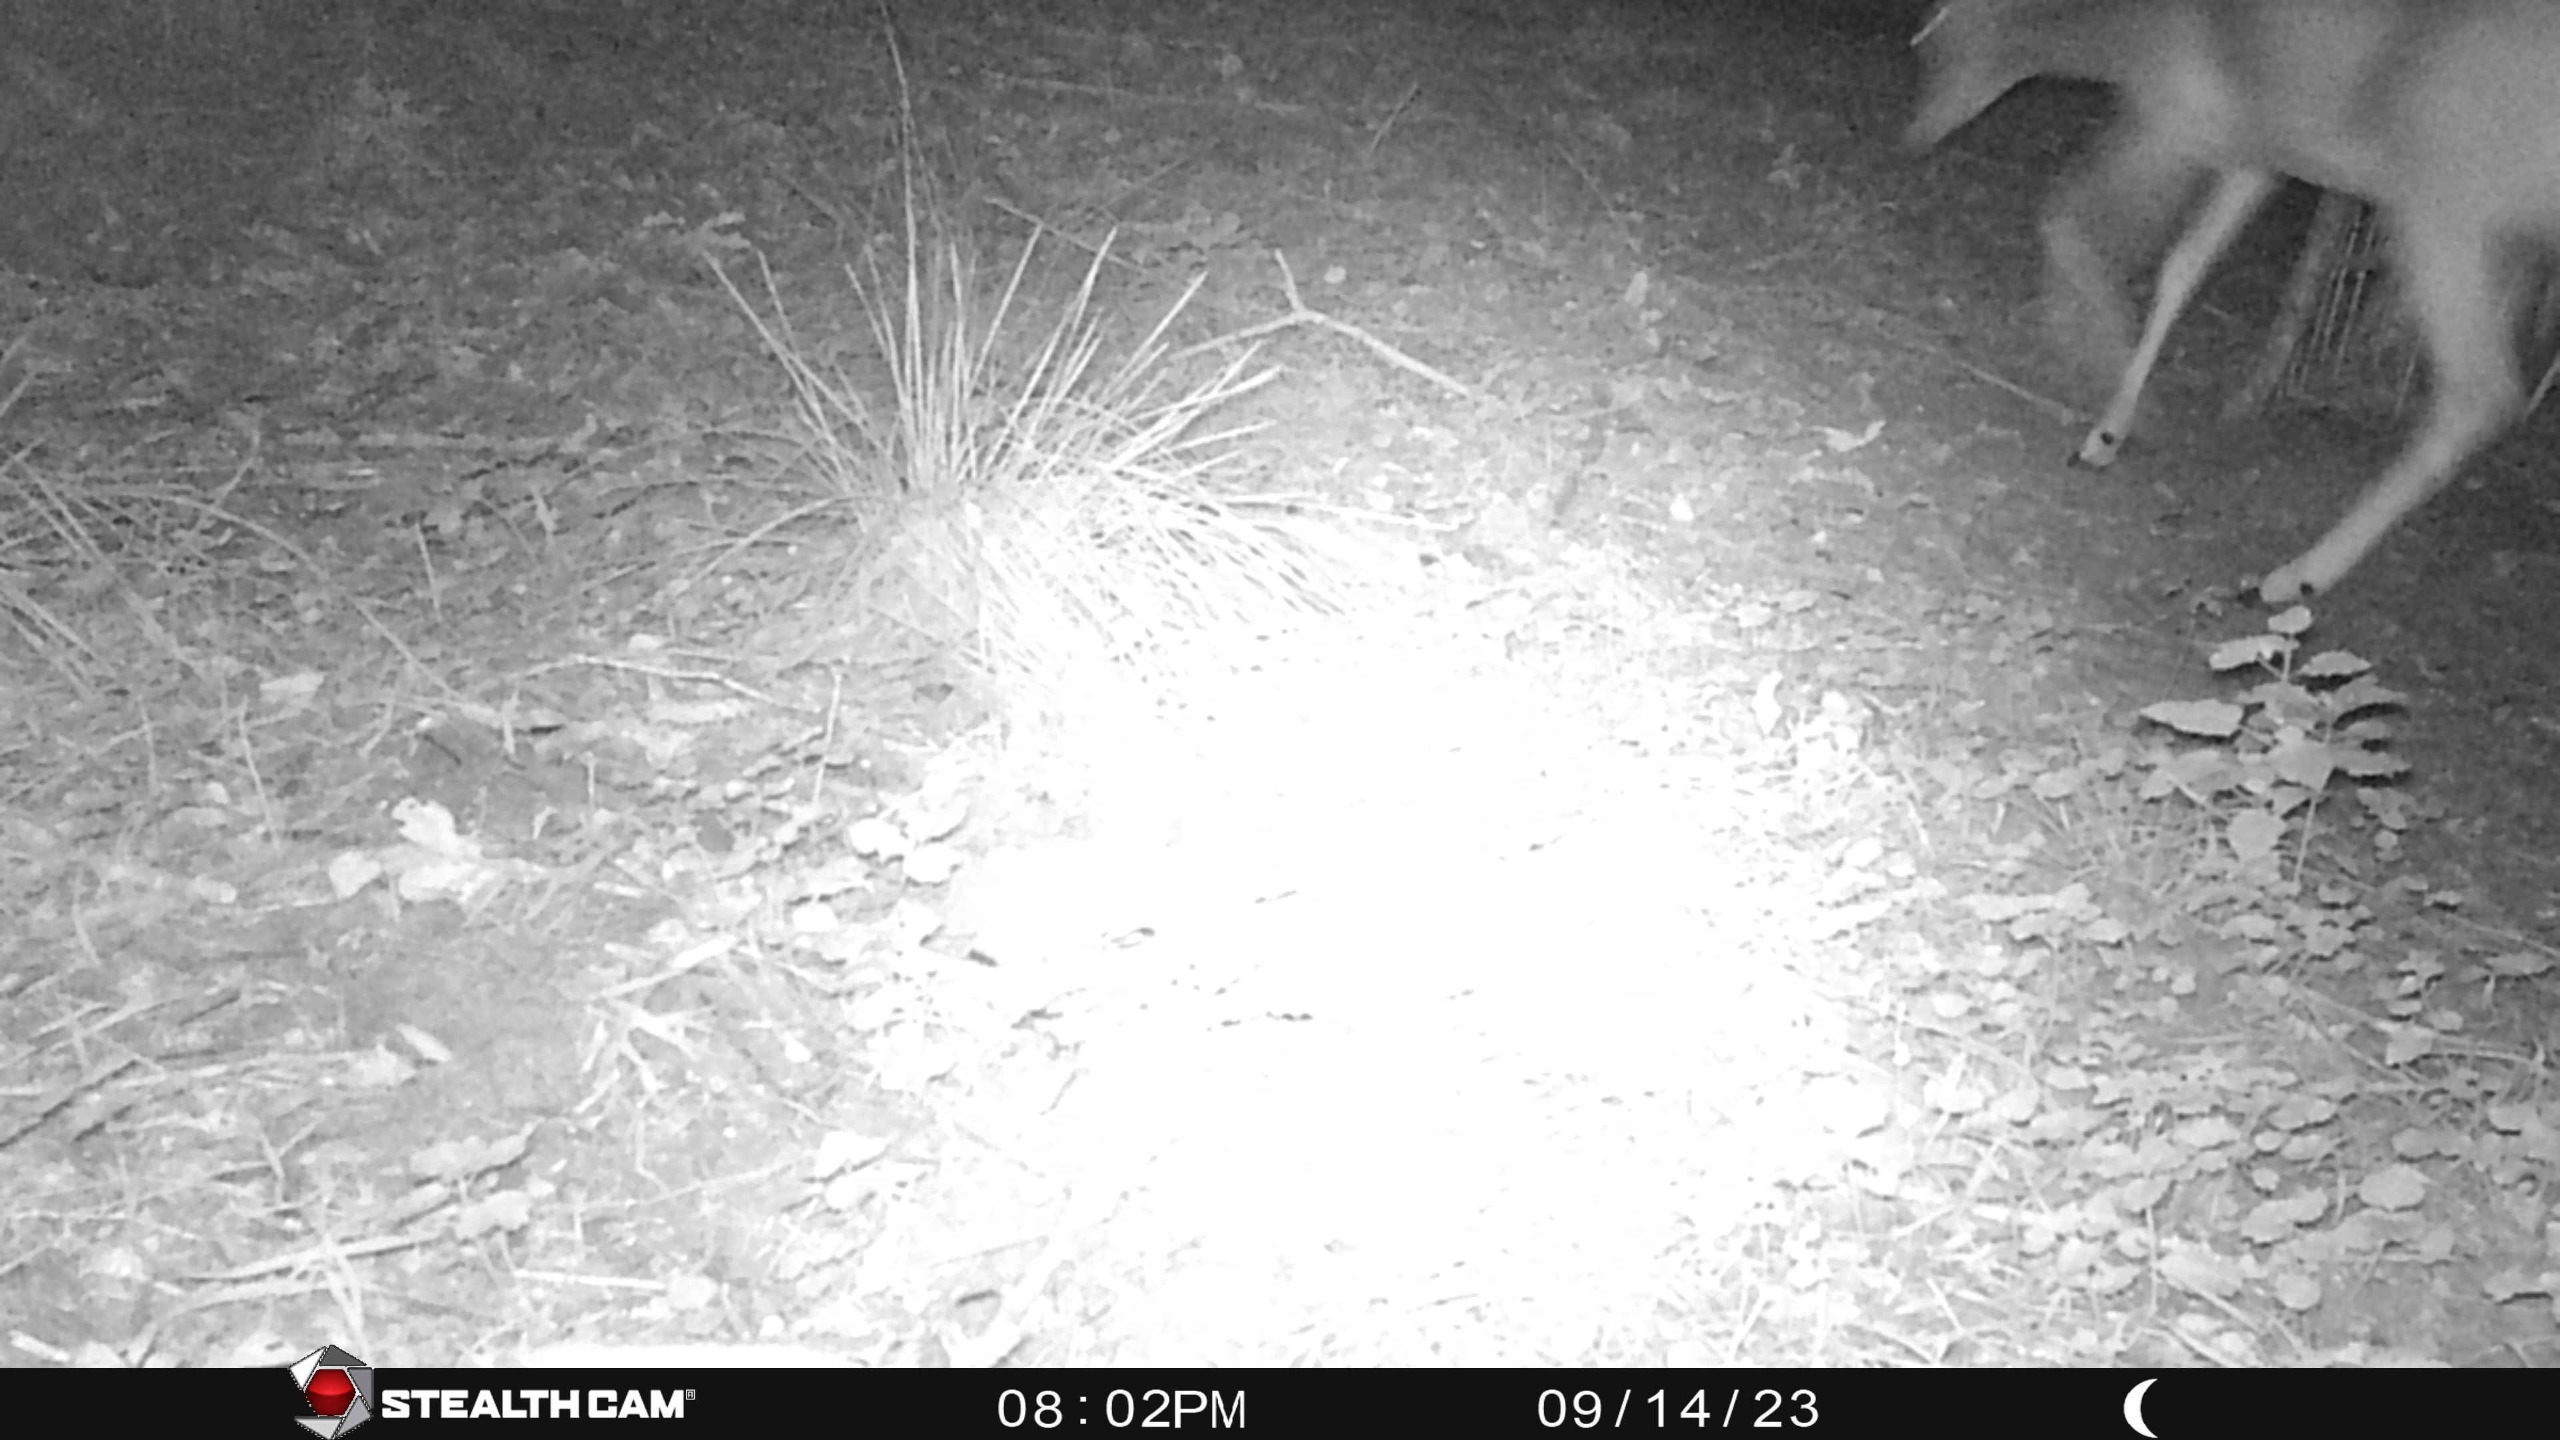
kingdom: Animalia
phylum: Chordata
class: Mammalia
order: Artiodactyla
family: Cervidae
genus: Dama
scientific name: Dama dama
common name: Dådyr
